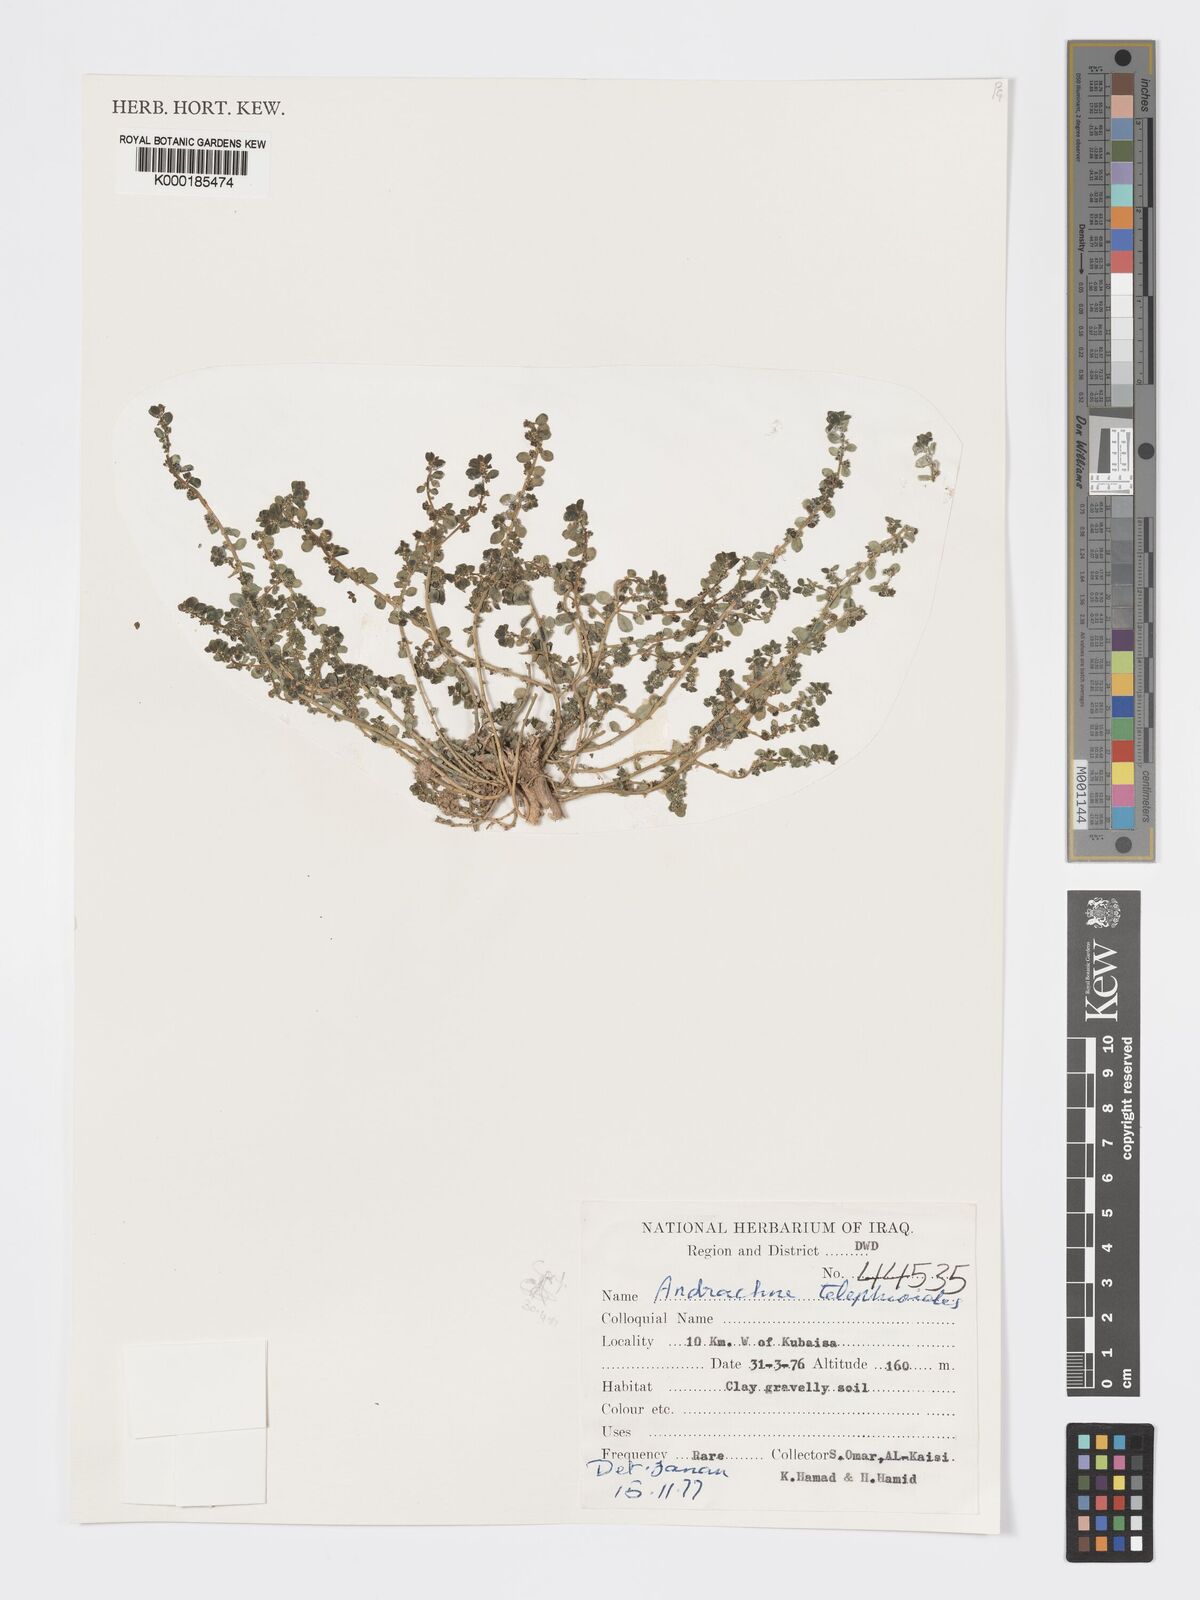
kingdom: Plantae
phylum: Tracheophyta
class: Magnoliopsida
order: Malpighiales
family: Phyllanthaceae
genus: Andrachne
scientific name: Andrachne telephioides
